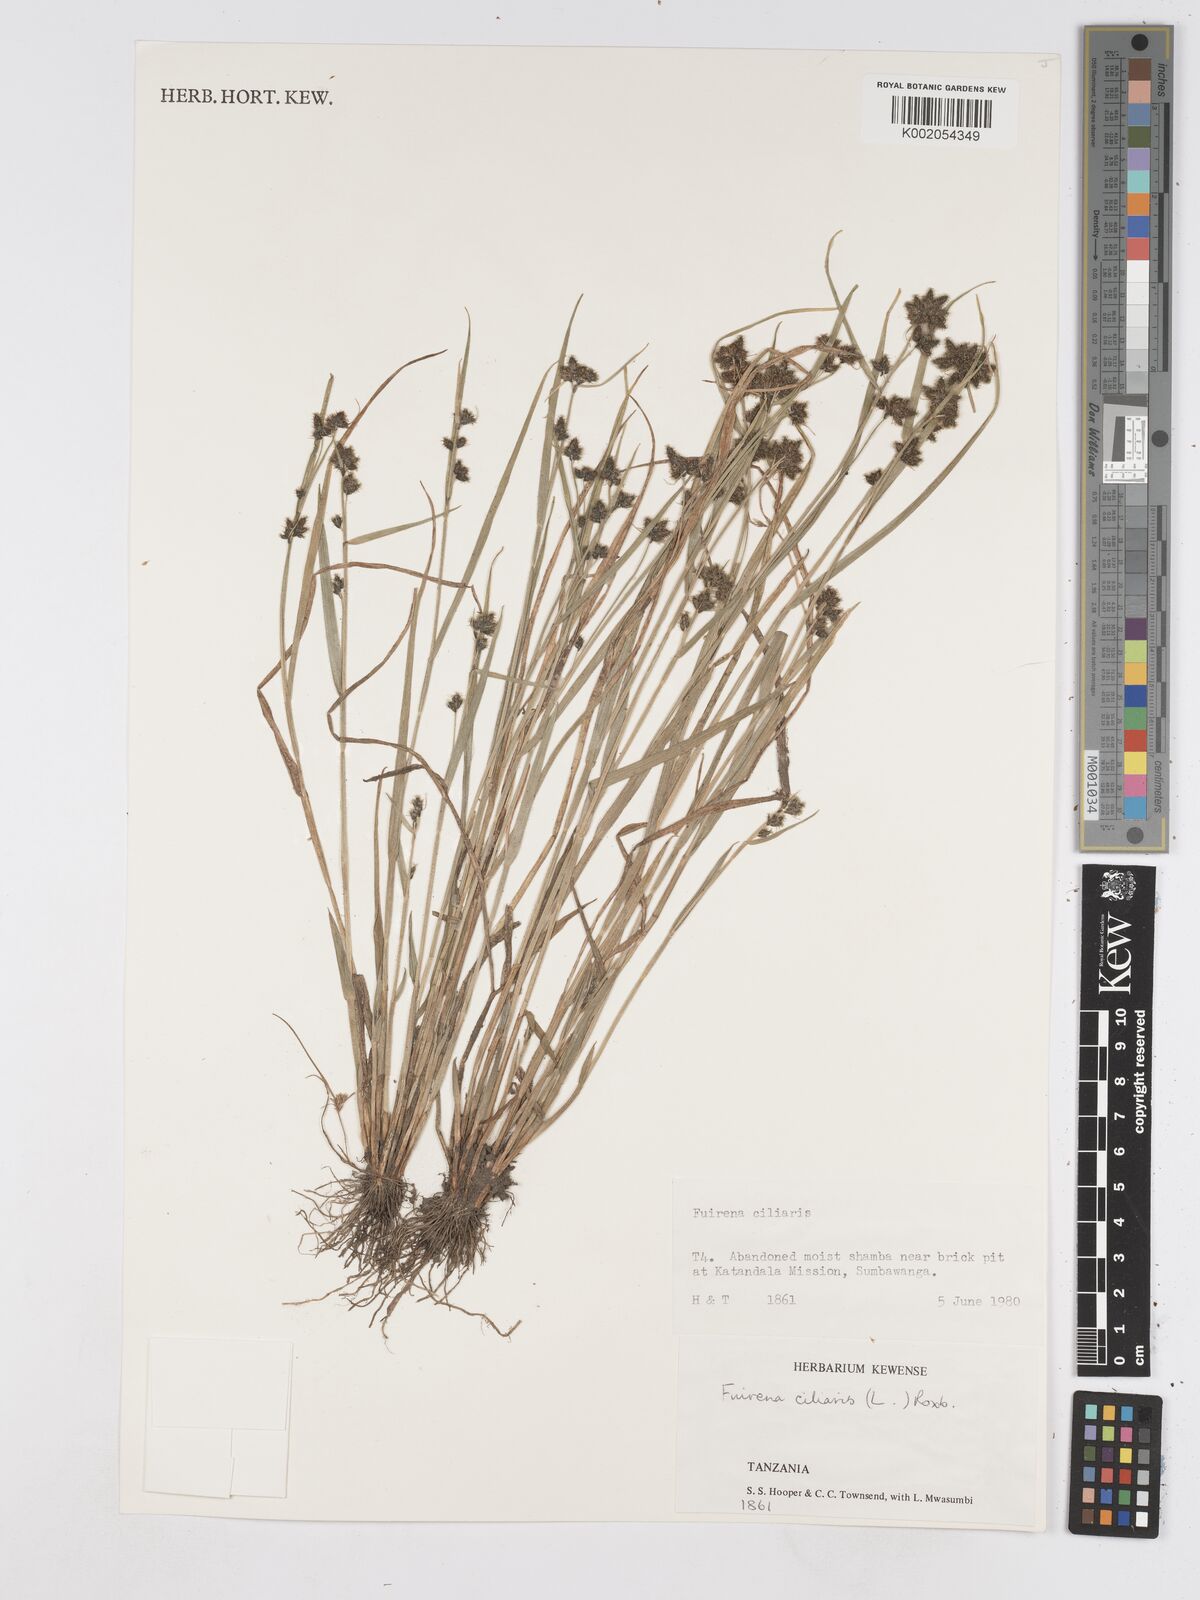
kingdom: Plantae
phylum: Tracheophyta
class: Liliopsida
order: Poales
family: Cyperaceae
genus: Fuirena
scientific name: Fuirena ciliaris
